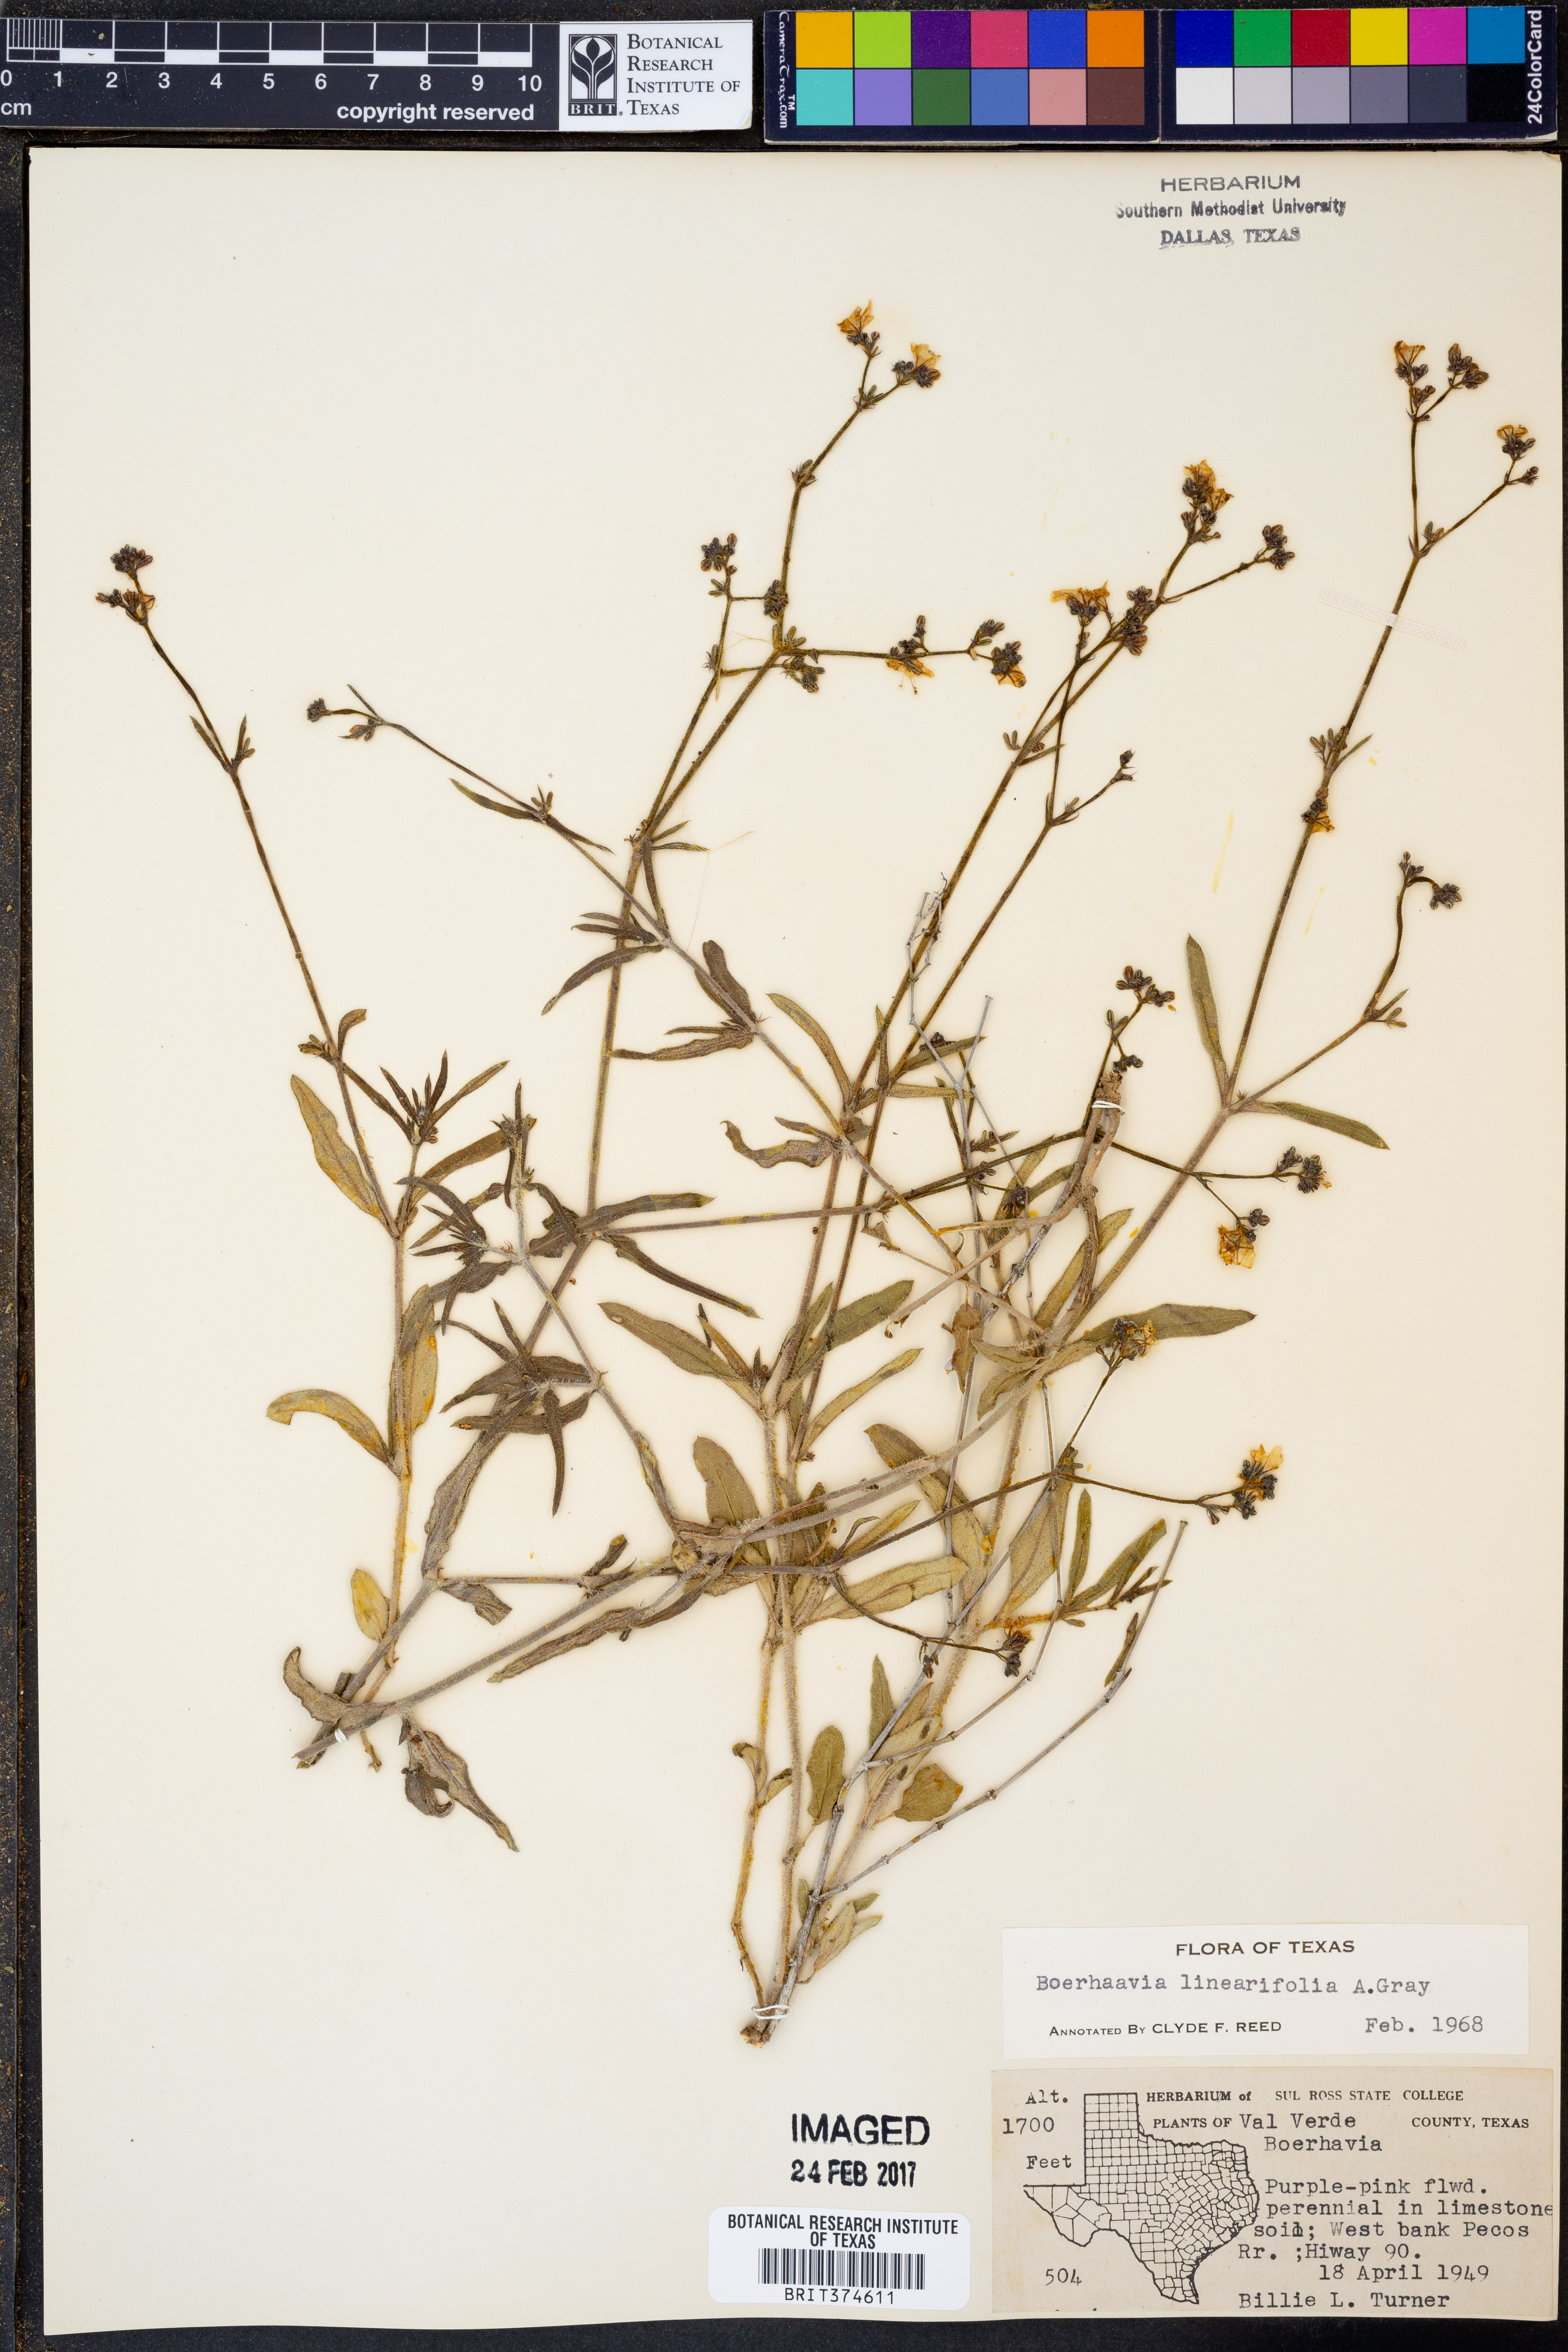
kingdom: Plantae
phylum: Tracheophyta
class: Magnoliopsida
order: Caryophyllales
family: Nyctaginaceae
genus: Boerhavia
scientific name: Boerhavia linearifolia
